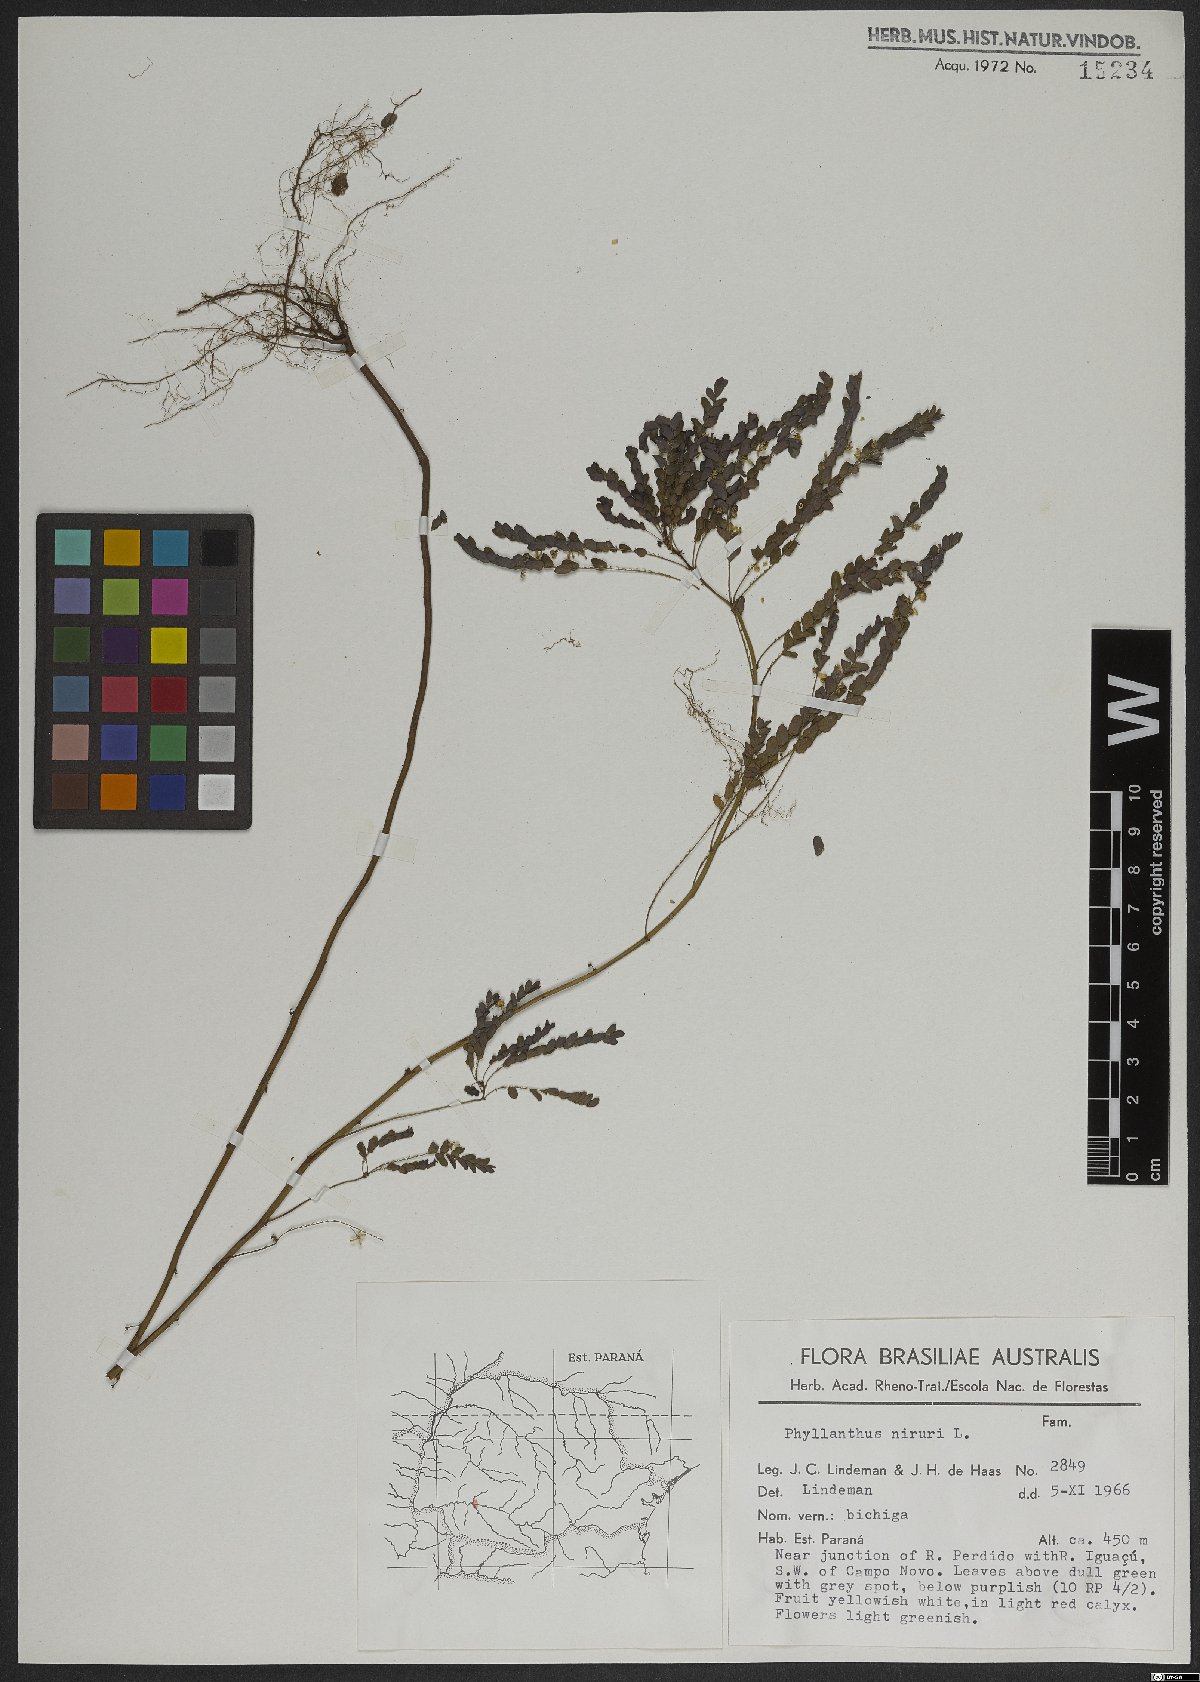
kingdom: Plantae
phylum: Tracheophyta
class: Magnoliopsida
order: Malpighiales
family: Phyllanthaceae
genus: Phyllanthus
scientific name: Phyllanthus niruri
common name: Niruri
